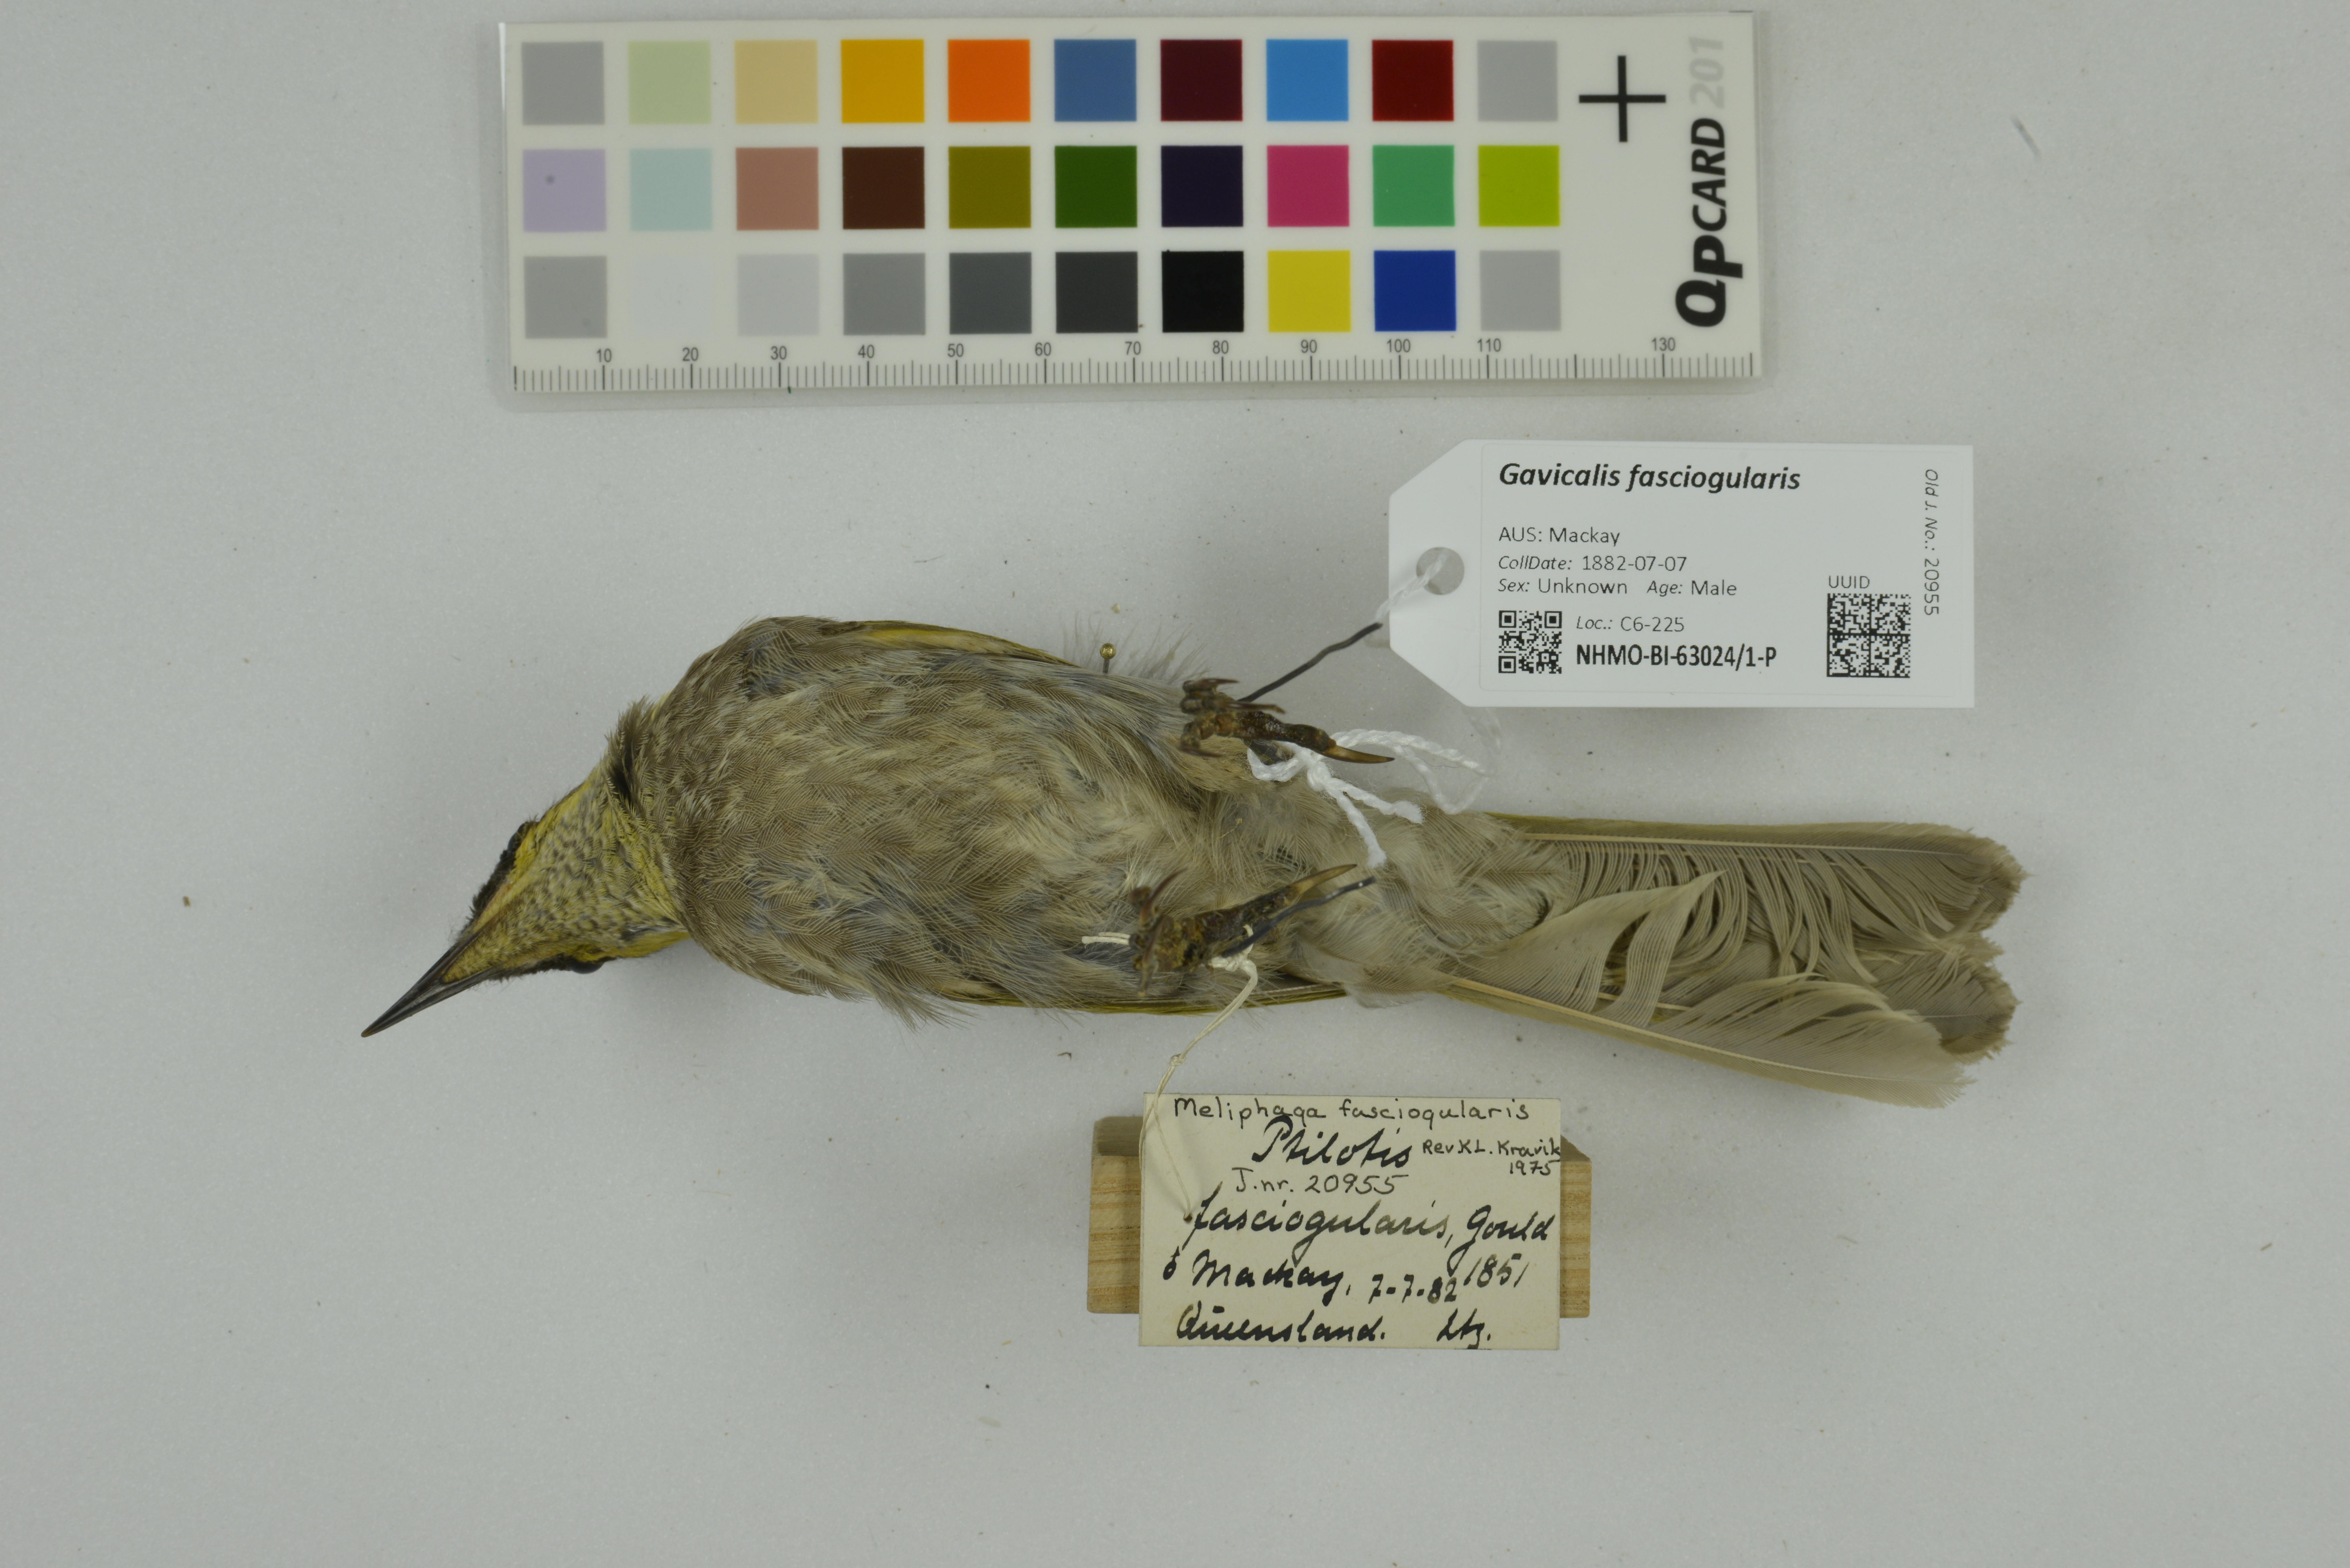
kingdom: Animalia
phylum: Chordata
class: Aves
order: Passeriformes
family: Meliphagidae
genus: Gavicalis
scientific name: Gavicalis fasciogularis
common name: Mangrove honeyeater
